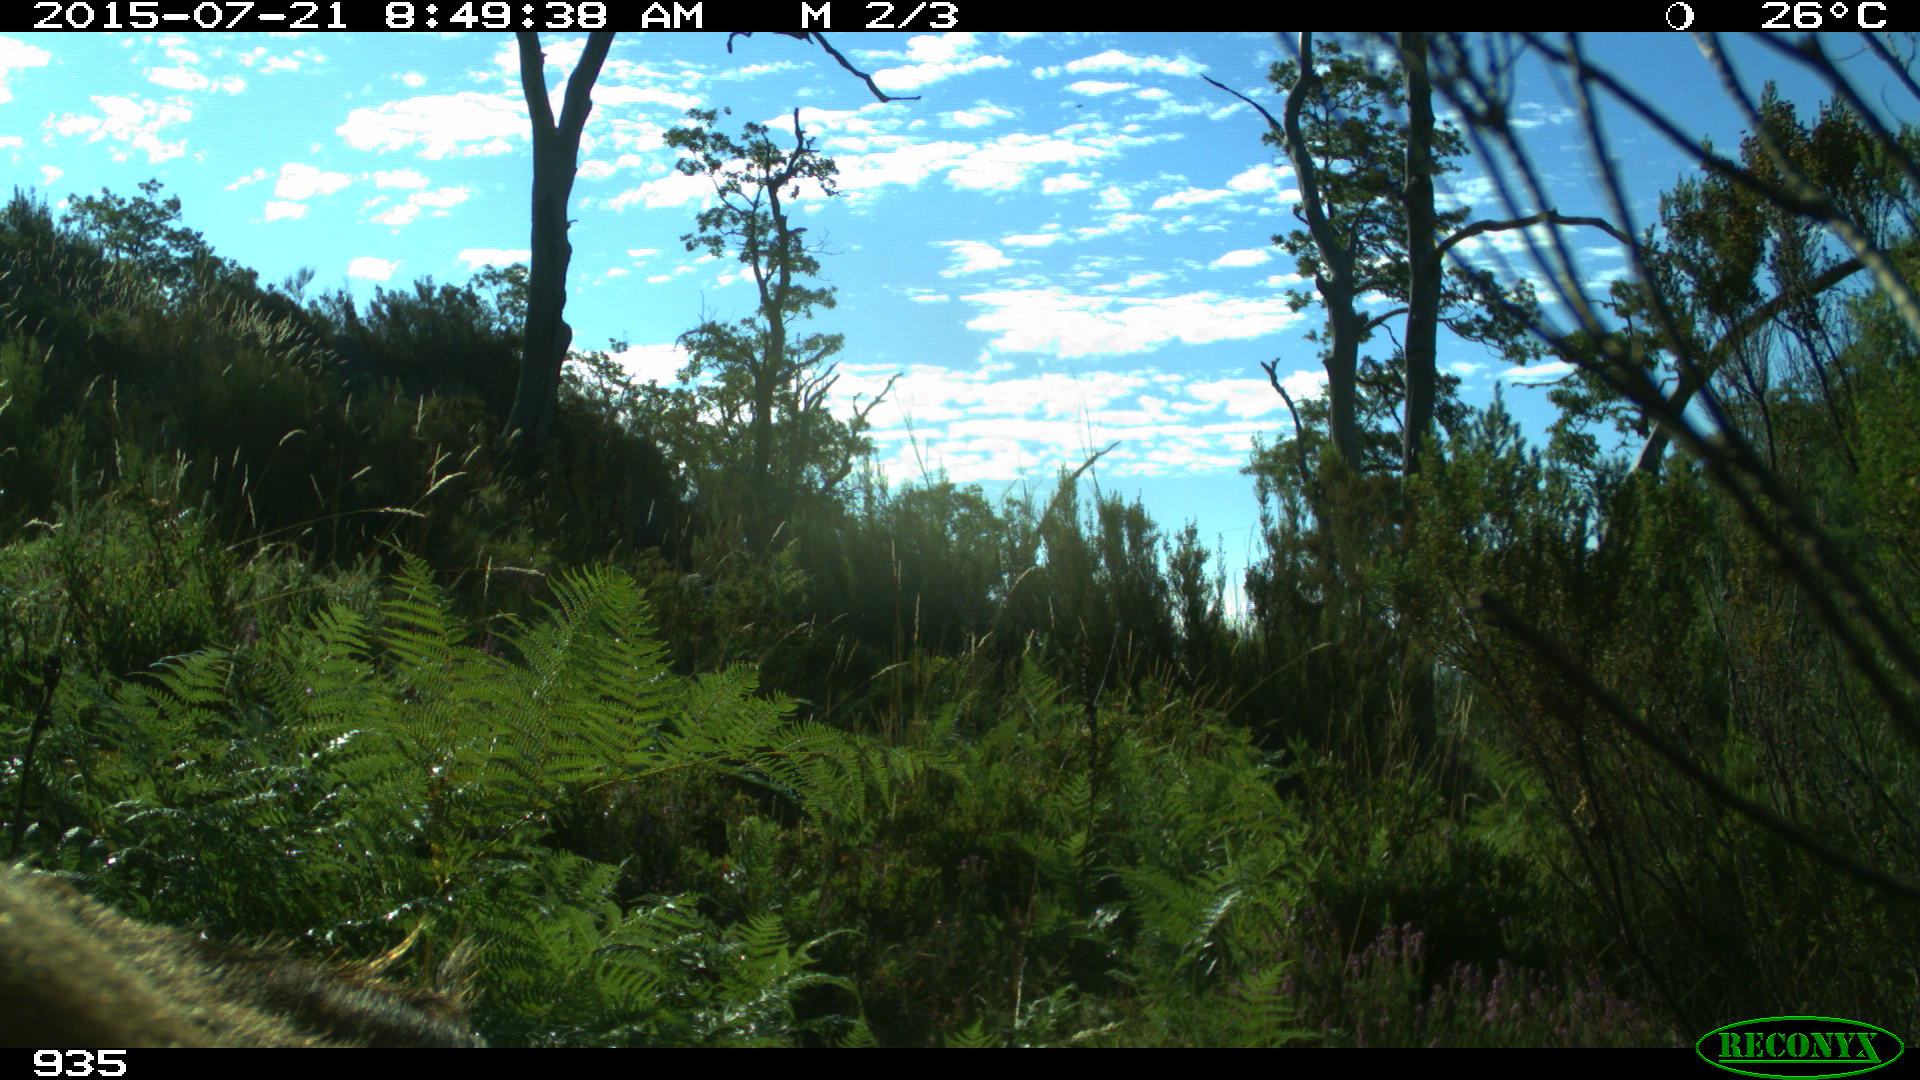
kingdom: Animalia
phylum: Chordata
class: Mammalia
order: Artiodactyla
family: Bovidae
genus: Bos
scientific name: Bos taurus
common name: Domesticated cattle
